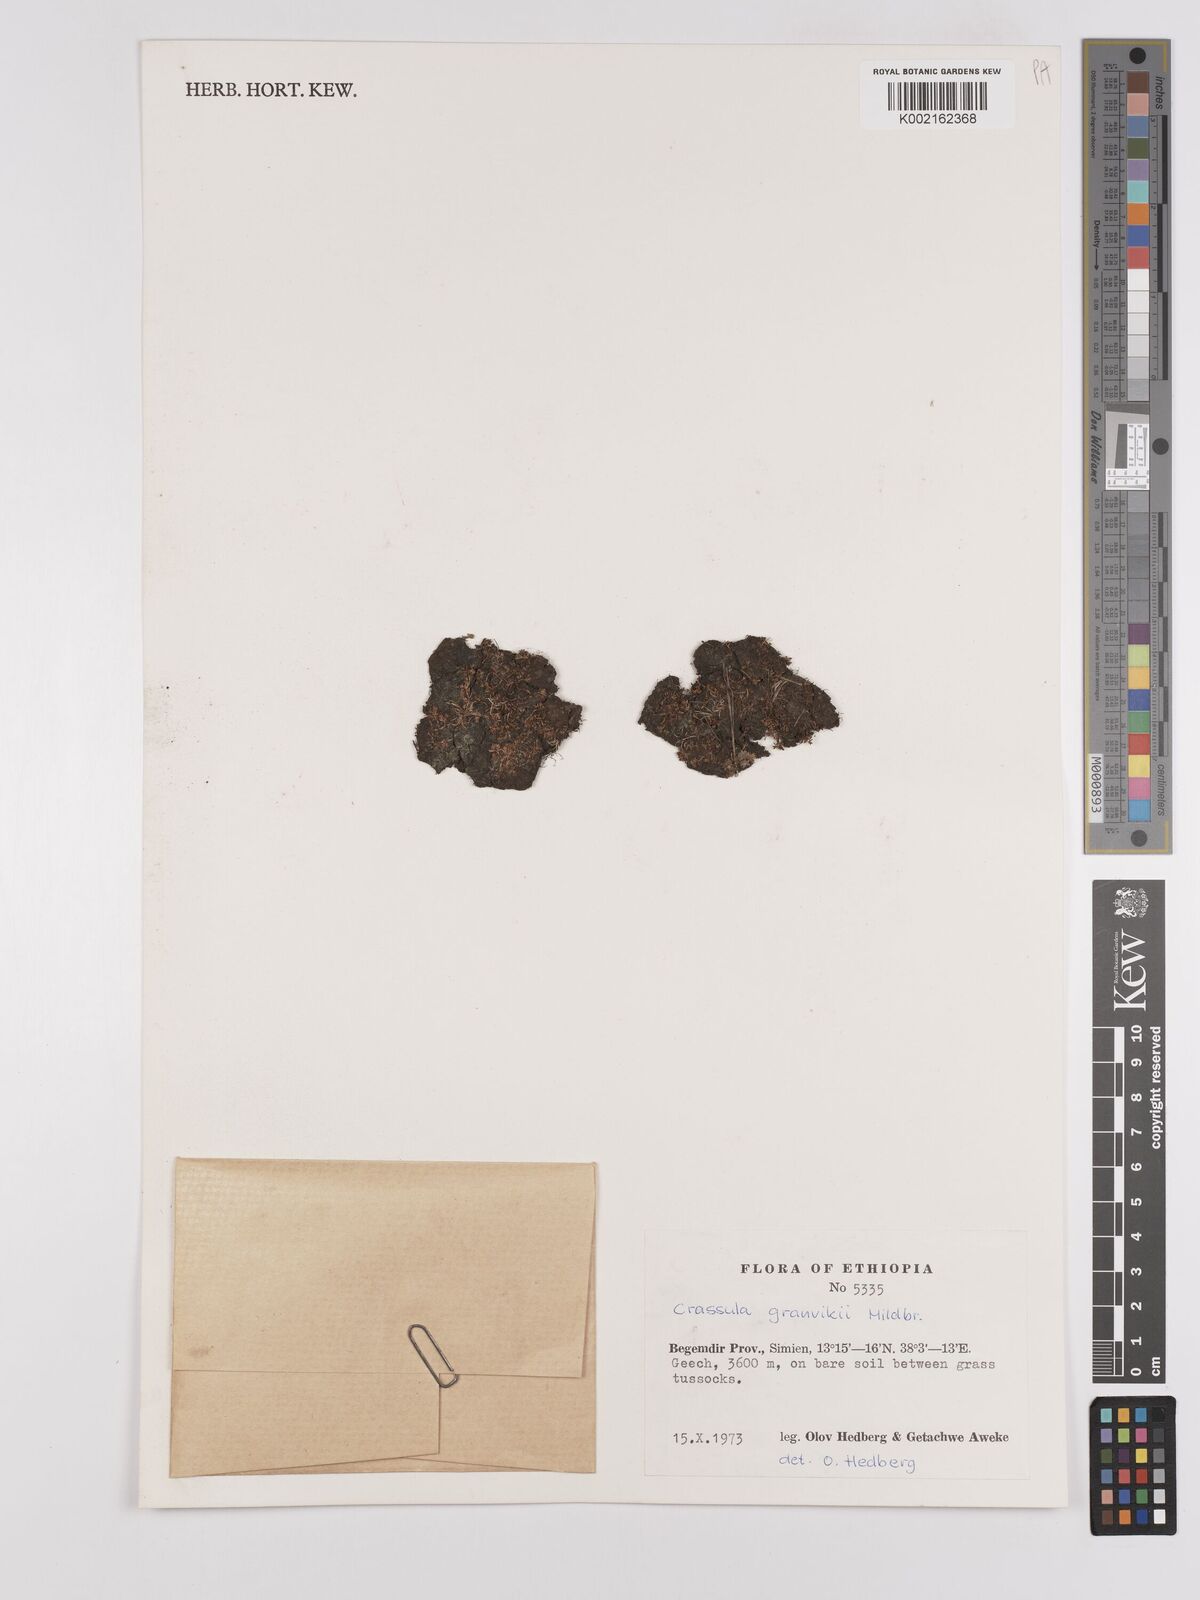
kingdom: Plantae
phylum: Tracheophyta
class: Magnoliopsida
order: Saxifragales
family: Crassulaceae
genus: Crassula
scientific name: Crassula granvikii
